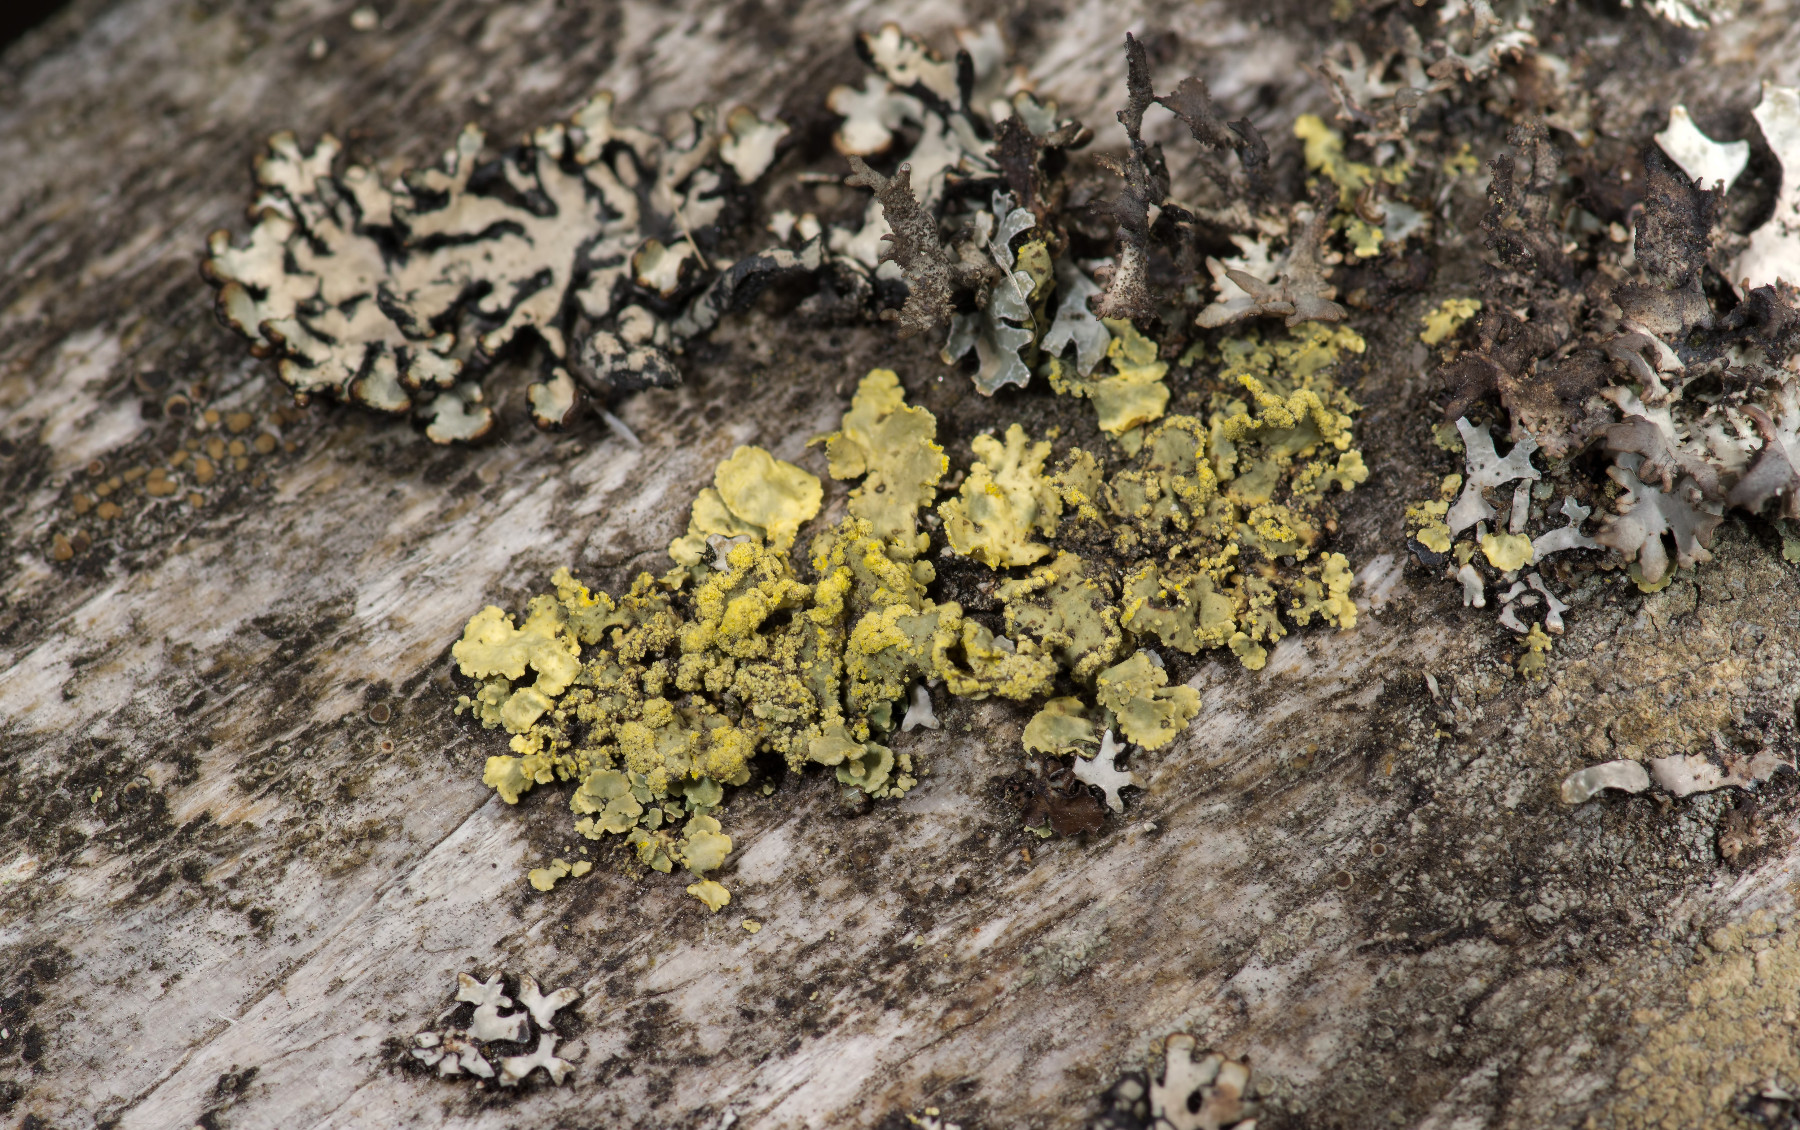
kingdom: Fungi
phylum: Ascomycota
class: Lecanoromycetes
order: Lecanorales
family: Parmeliaceae
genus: Vulpicida
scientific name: Vulpicida pinastri
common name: gul kruslav
